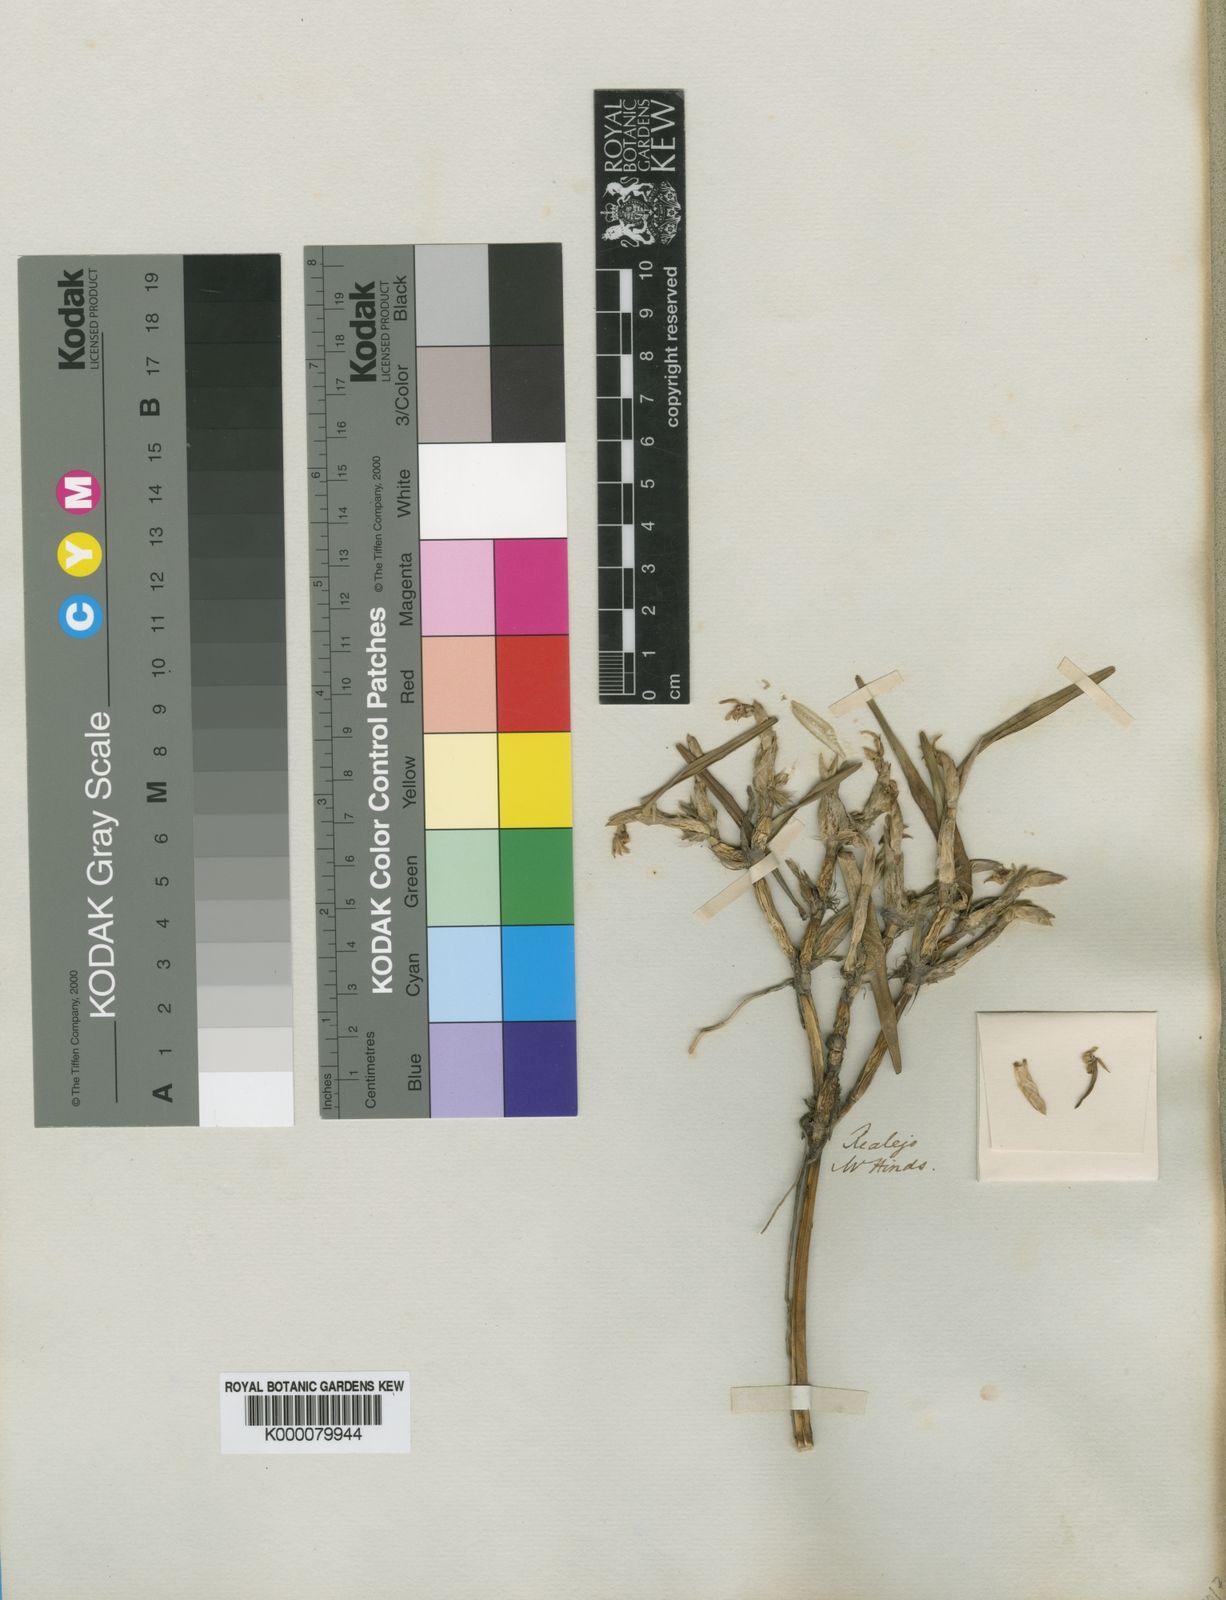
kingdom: Plantae
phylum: Tracheophyta
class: Liliopsida
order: Asparagales
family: Orchidaceae
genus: Scaphyglottis
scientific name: Scaphyglottis
